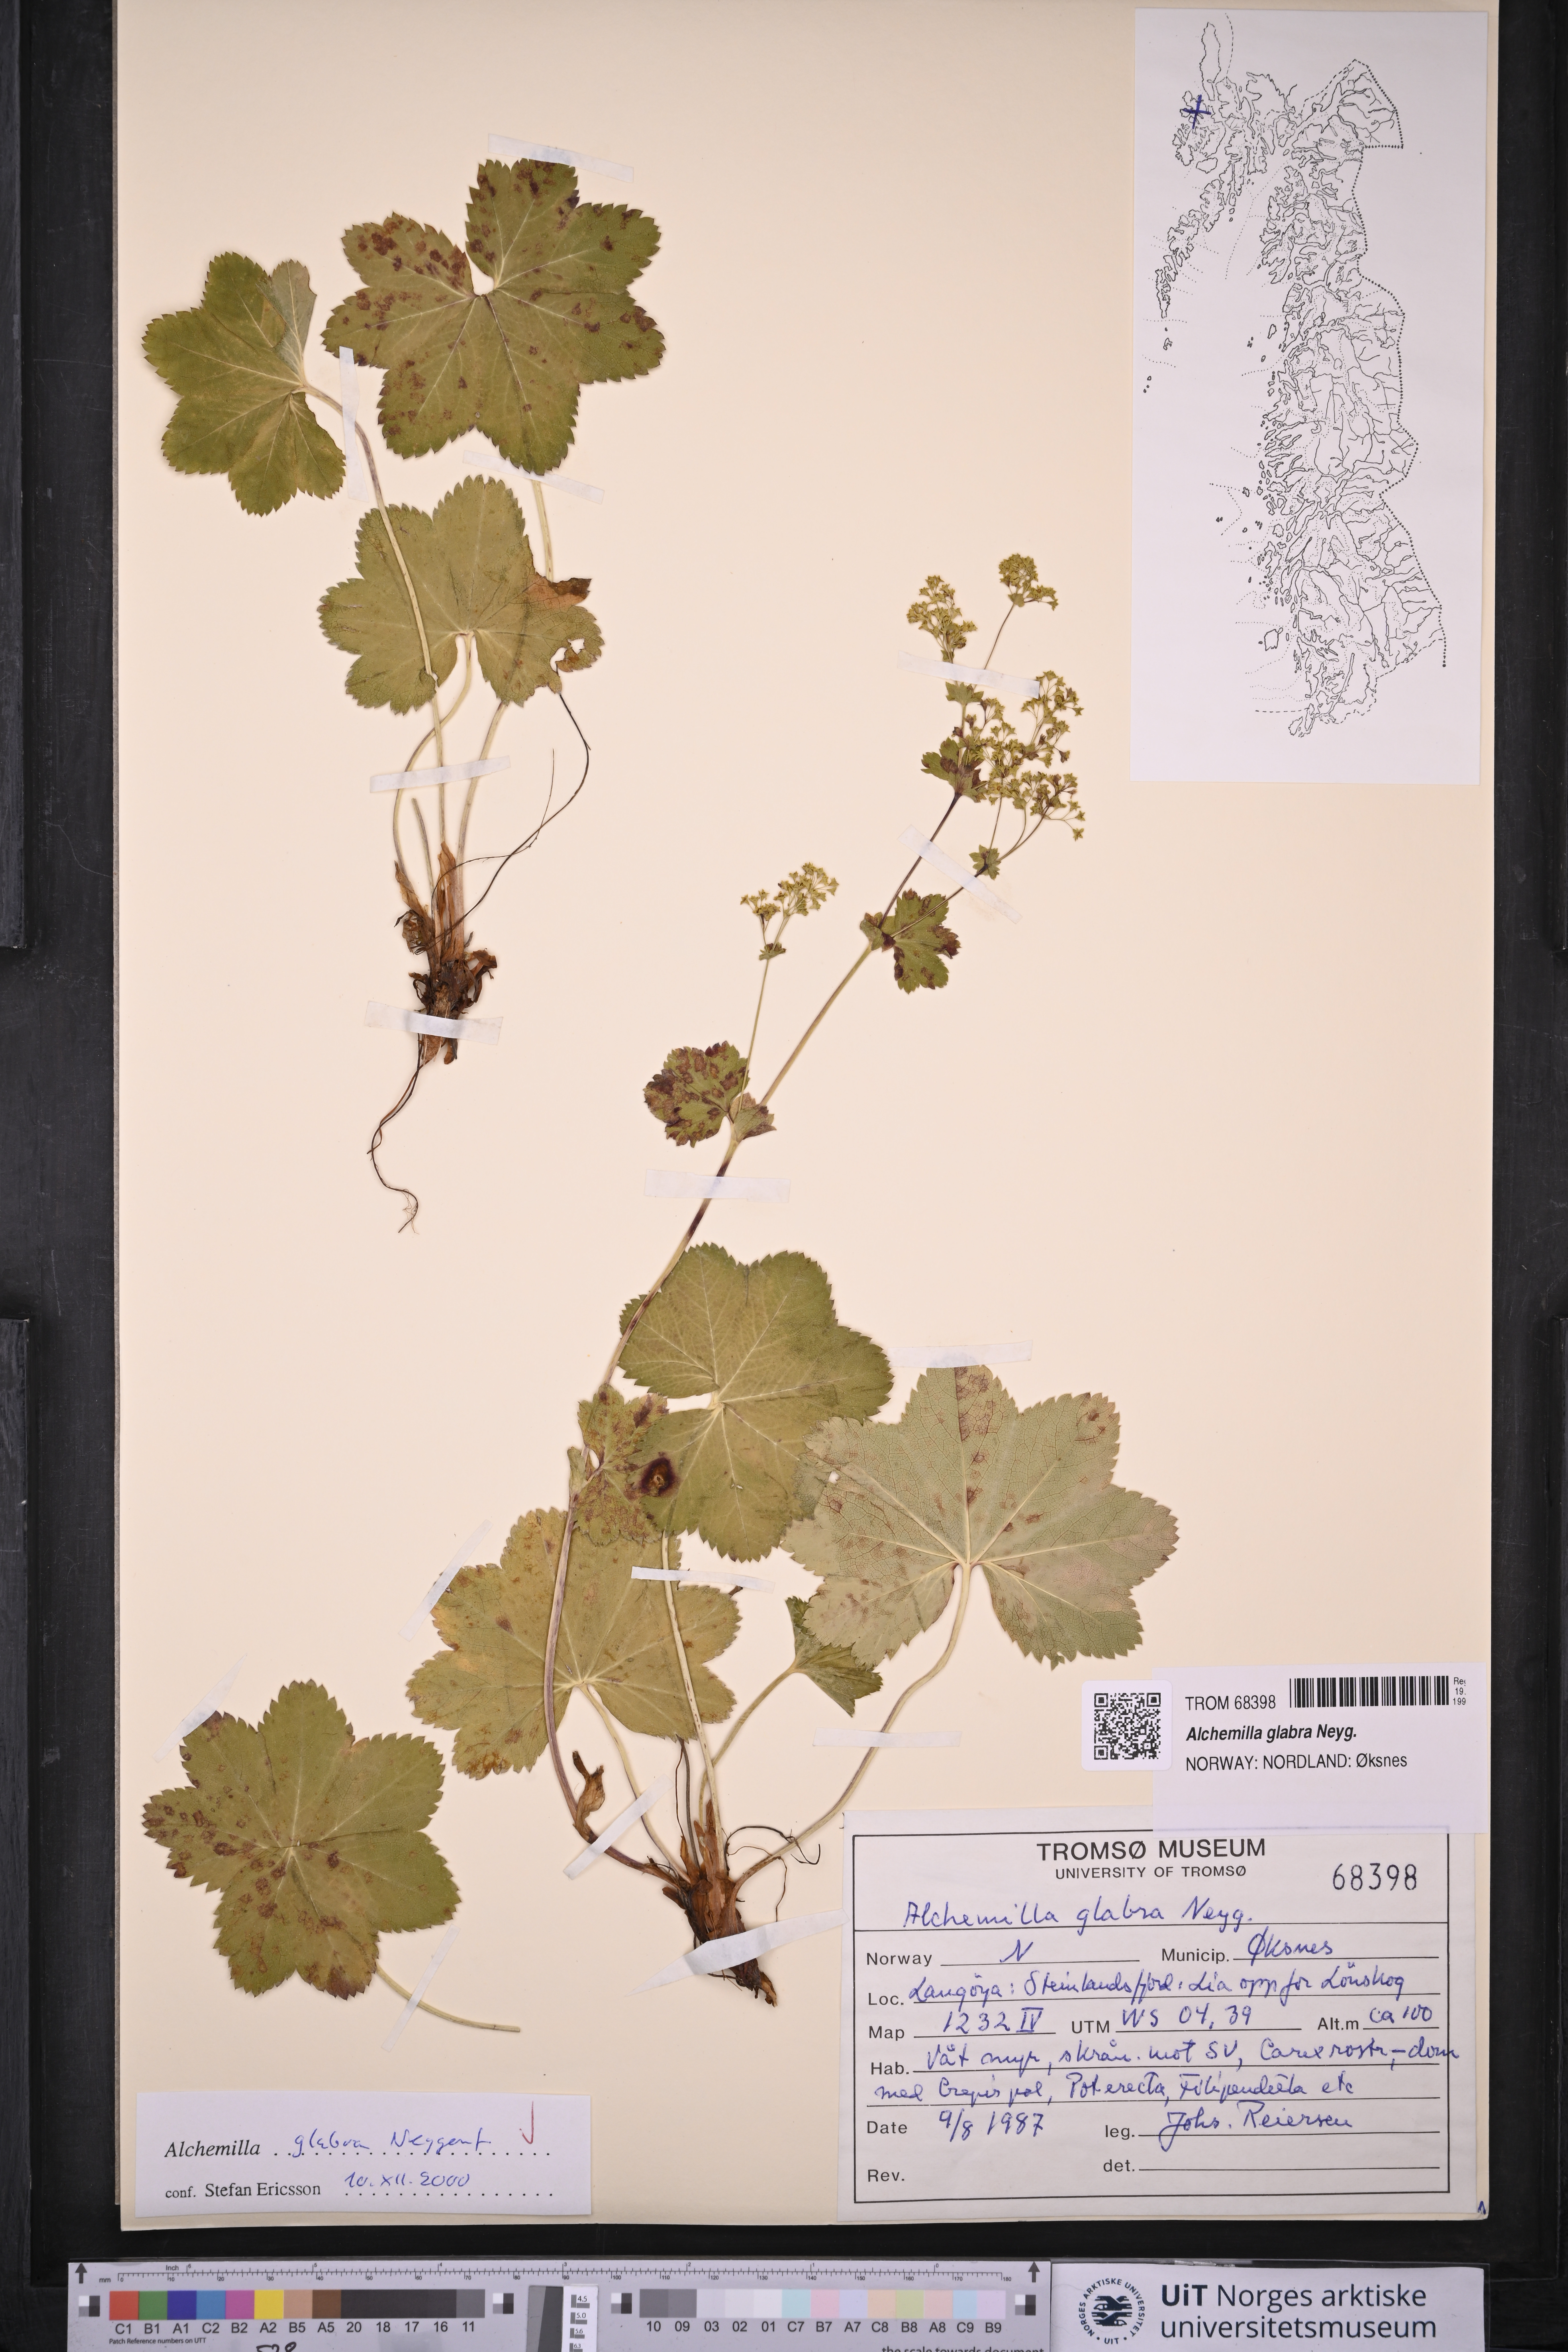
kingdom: Plantae
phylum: Tracheophyta
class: Magnoliopsida
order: Rosales
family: Rosaceae
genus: Alchemilla
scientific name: Alchemilla glabra
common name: Smooth lady's-mantle
